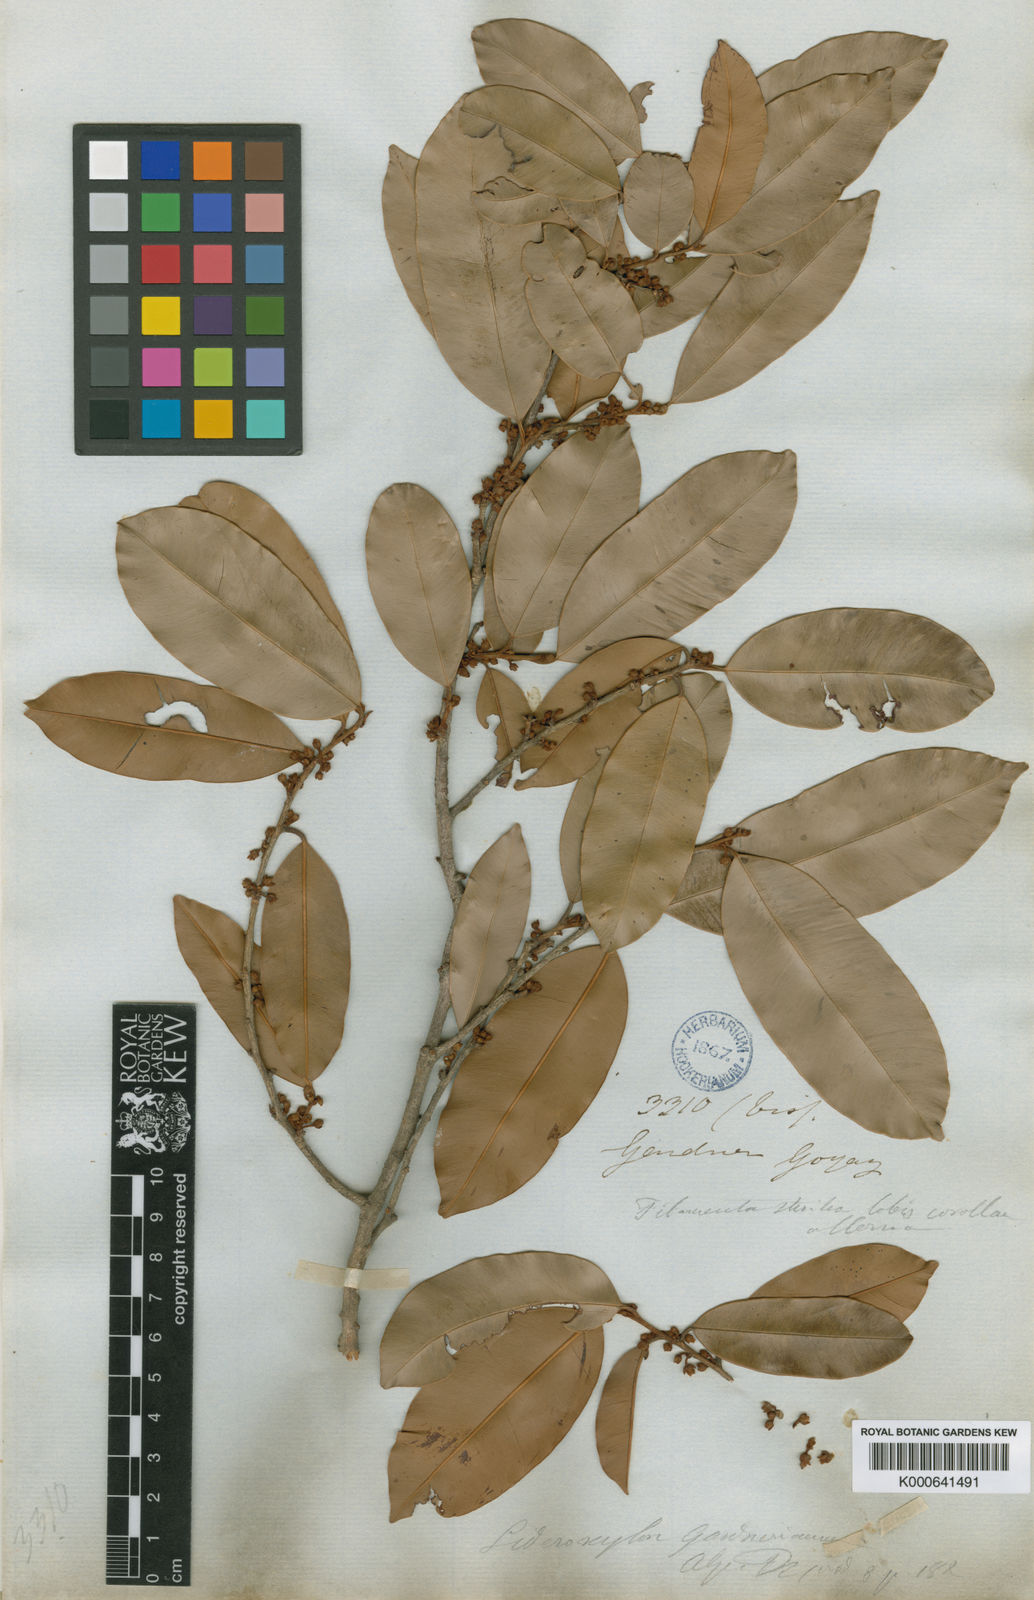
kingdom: Plantae
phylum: Tracheophyta
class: Magnoliopsida
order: Ericales
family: Sapotaceae
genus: Micropholis
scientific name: Micropholis gardneriana
